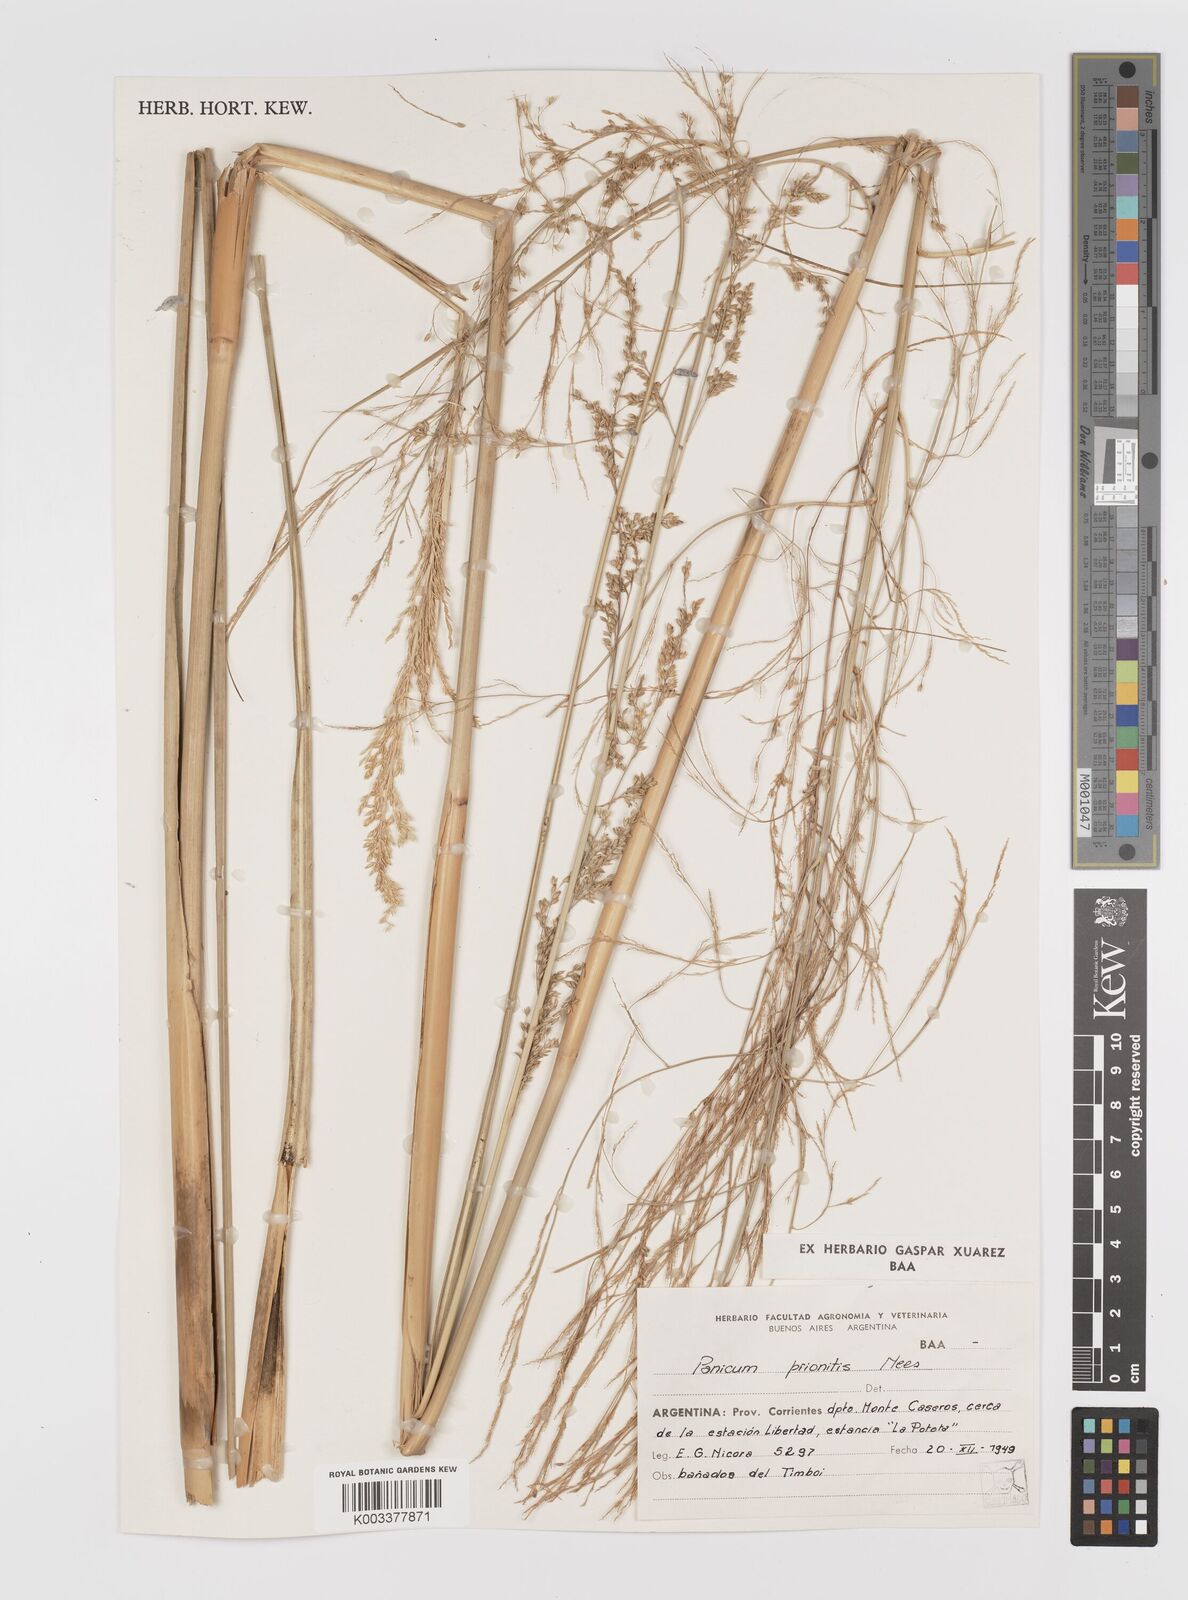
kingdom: Plantae
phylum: Tracheophyta
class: Liliopsida
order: Poales
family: Poaceae
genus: Coleataenia
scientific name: Coleataenia prionitis
